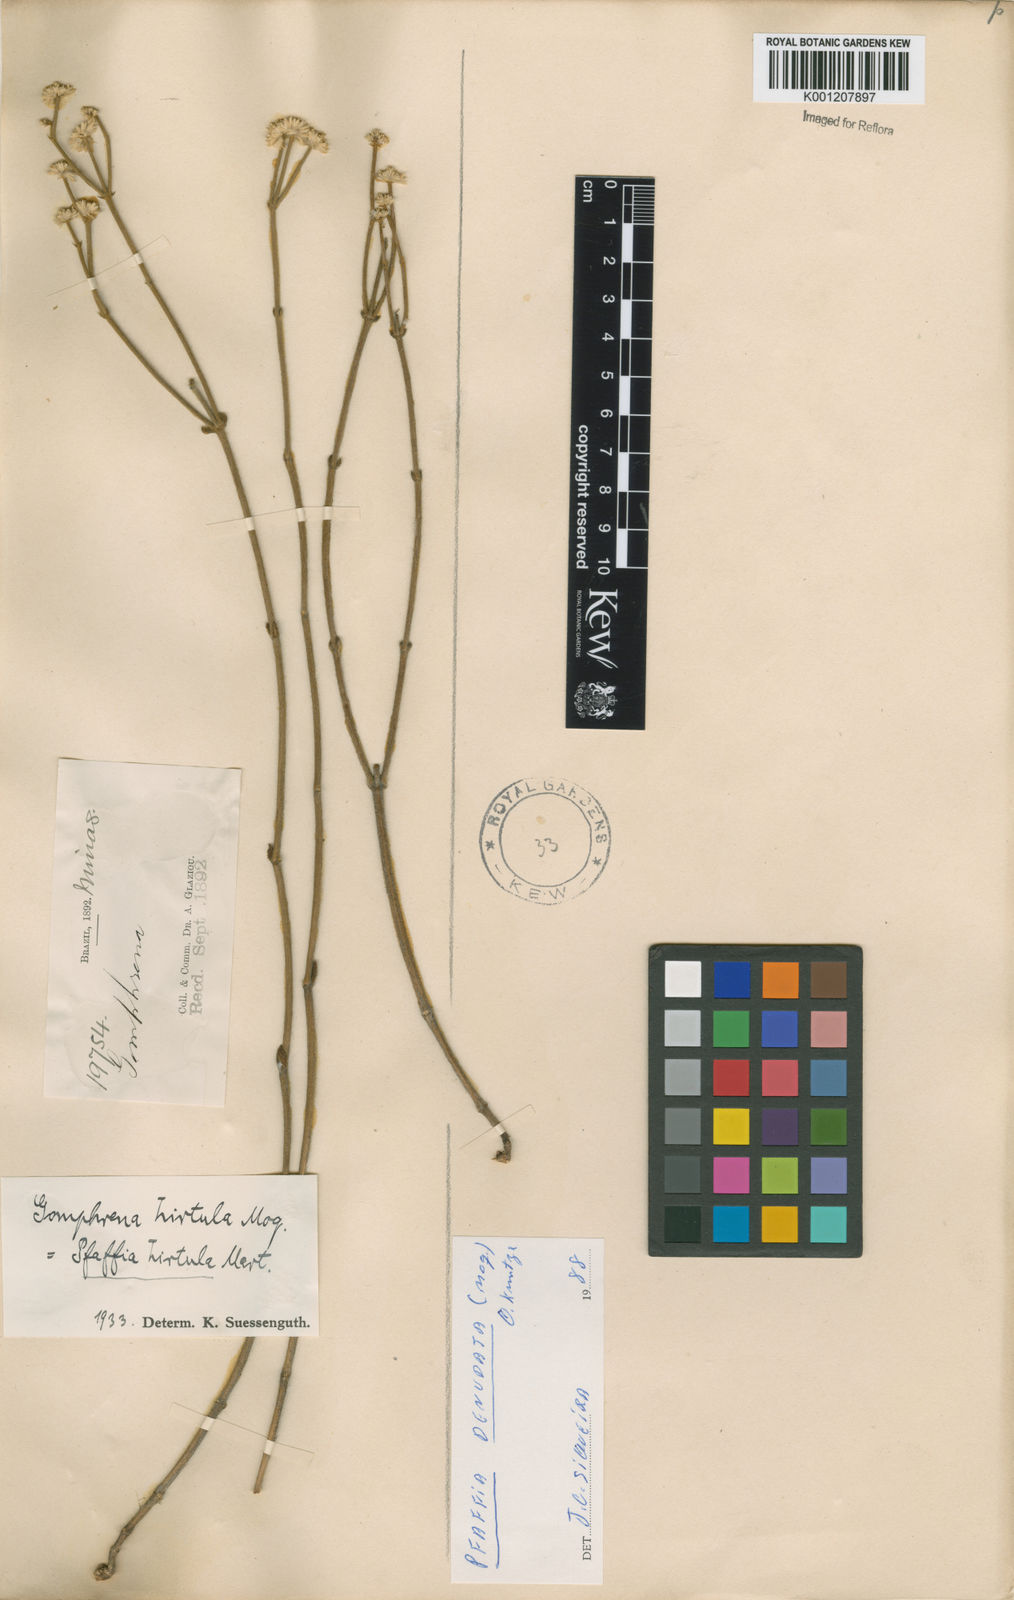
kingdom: Plantae
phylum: Tracheophyta
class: Magnoliopsida
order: Caryophyllales
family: Amaranthaceae
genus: Pfaffia
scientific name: Pfaffia denudata
